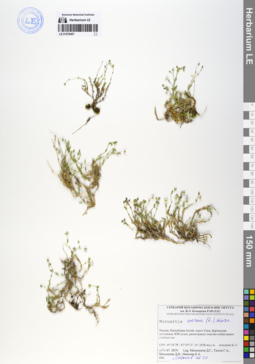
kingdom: Plantae
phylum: Tracheophyta
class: Magnoliopsida
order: Caryophyllales
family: Caryophyllaceae
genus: Sabulina
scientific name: Sabulina verna
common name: Spring sandwort
